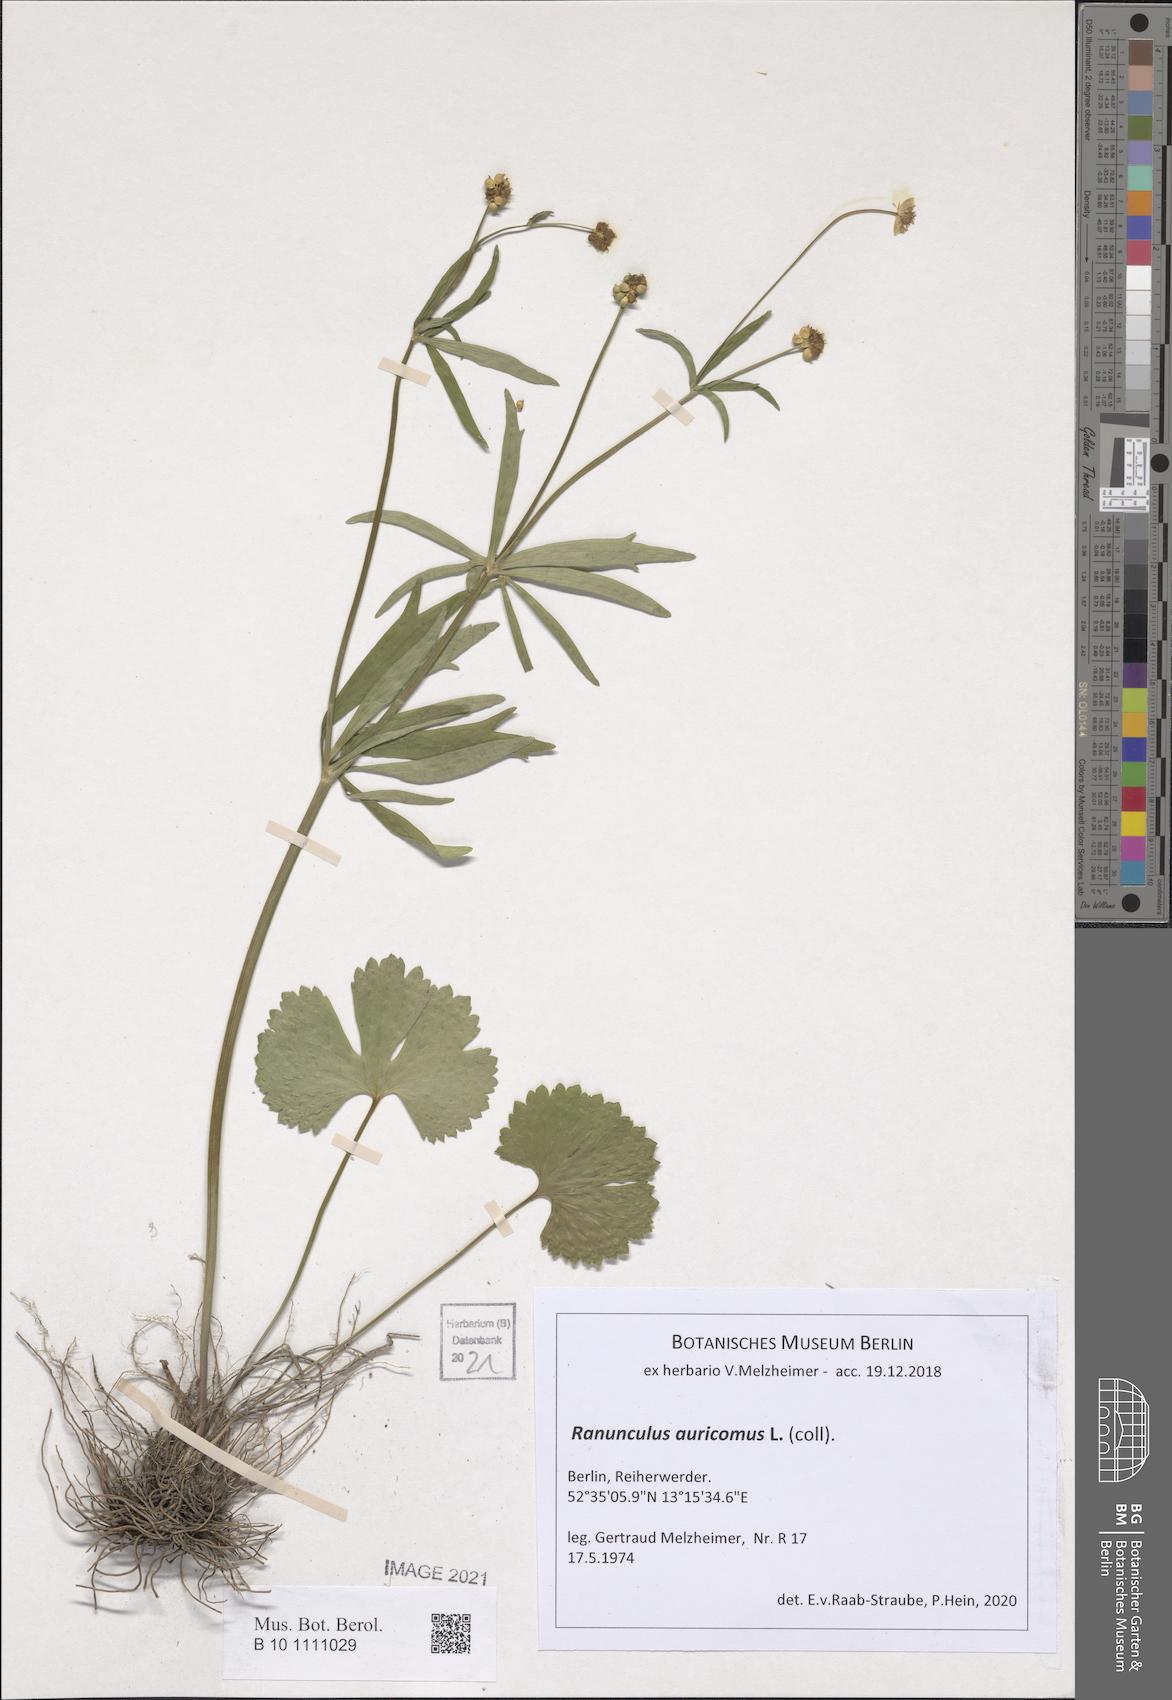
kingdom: Plantae
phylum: Tracheophyta
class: Magnoliopsida
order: Ranunculales
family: Ranunculaceae
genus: Ranunculus
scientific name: Ranunculus auricomus
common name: Goldilocks buttercup
